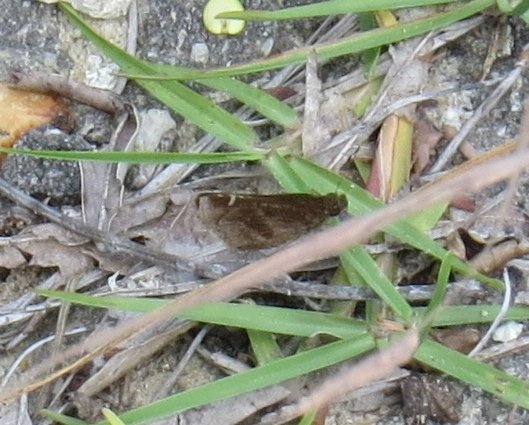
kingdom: Animalia
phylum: Arthropoda
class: Insecta
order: Lepidoptera
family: Hesperiidae
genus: Lerema
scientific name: Lerema accius
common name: Clouded Skipper
